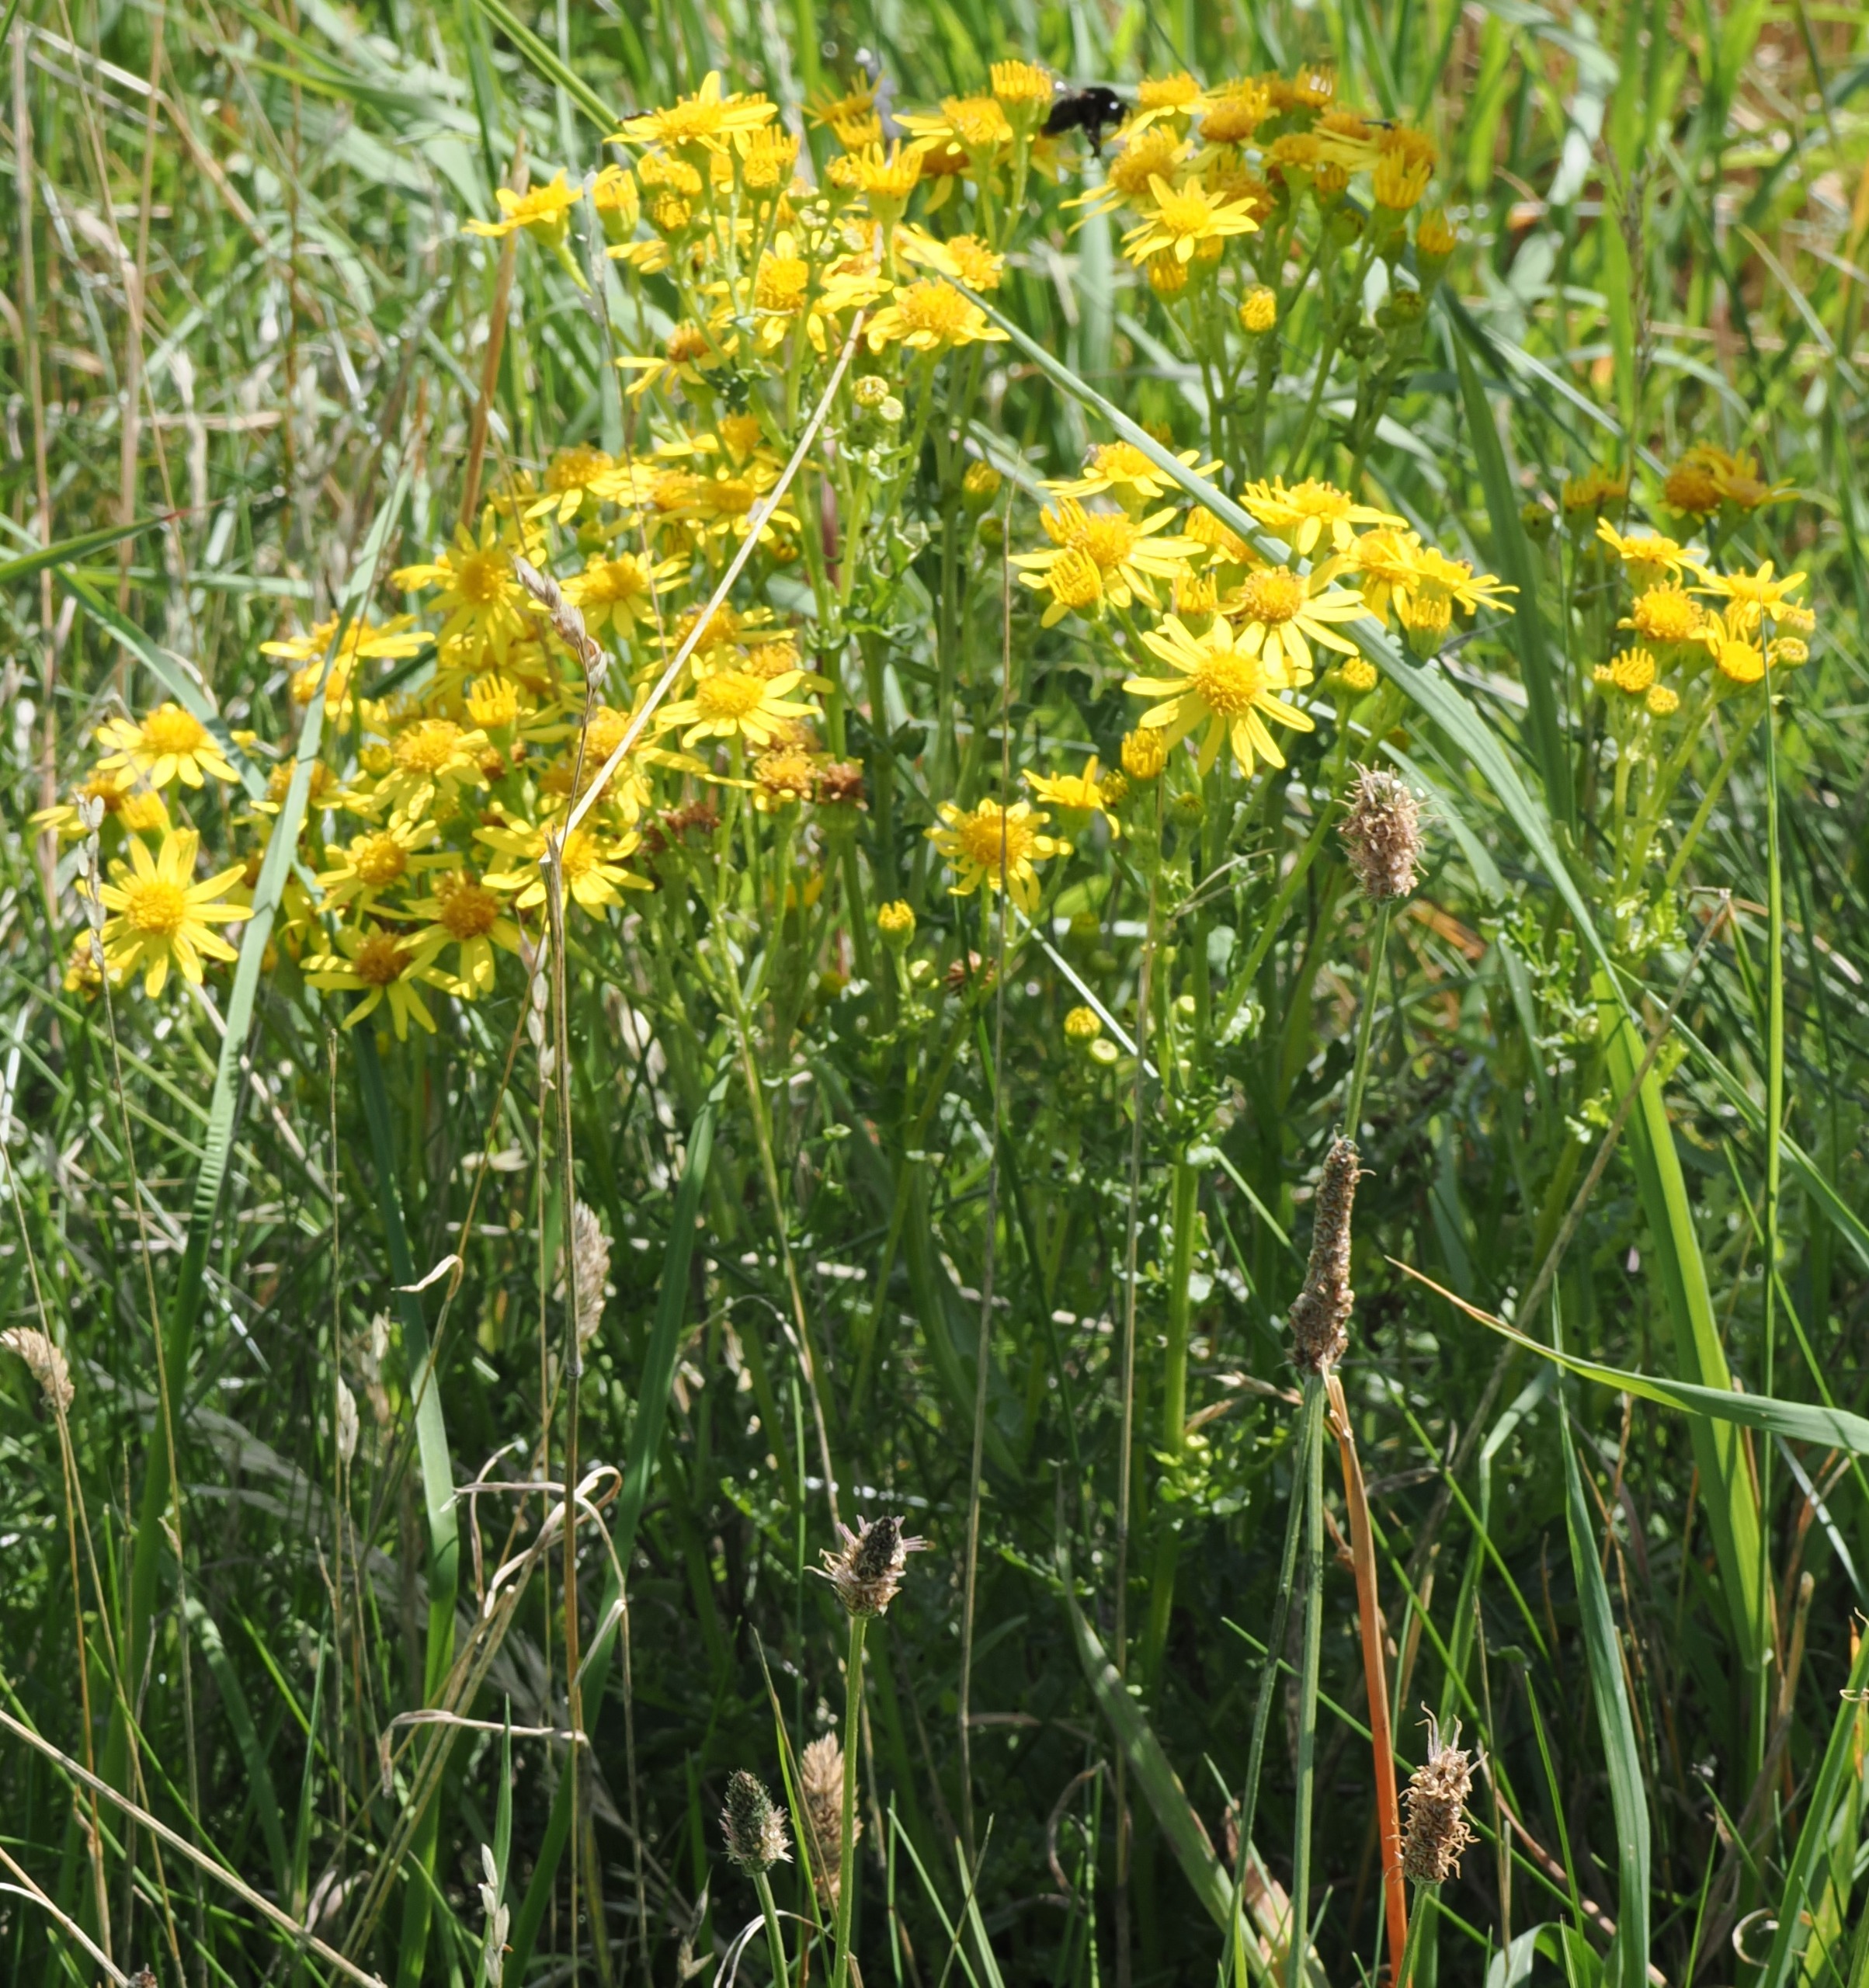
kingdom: Plantae
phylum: Tracheophyta
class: Magnoliopsida
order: Asterales
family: Asteraceae
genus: Jacobaea
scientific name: Jacobaea vulgaris
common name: Eng-brandbæger
